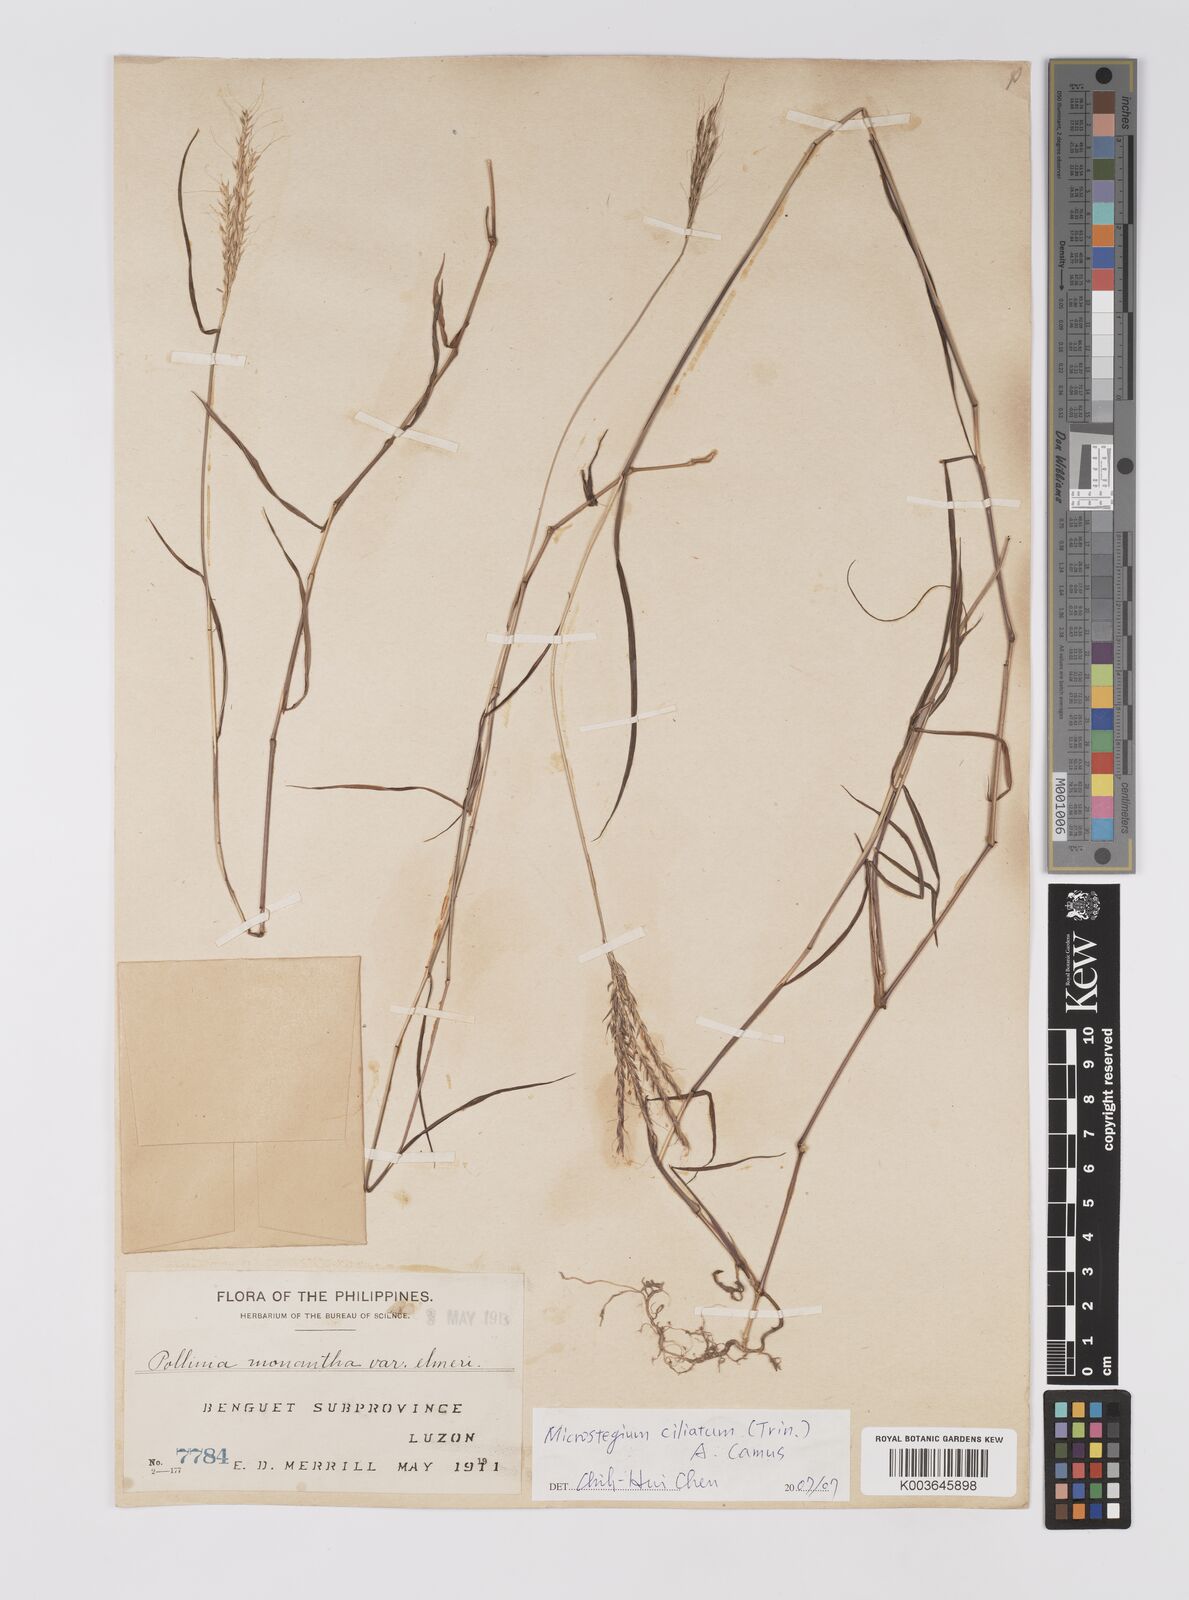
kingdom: Plantae
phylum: Tracheophyta
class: Liliopsida
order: Poales
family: Poaceae
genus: Microstegium
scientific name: Microstegium fasciculatum
